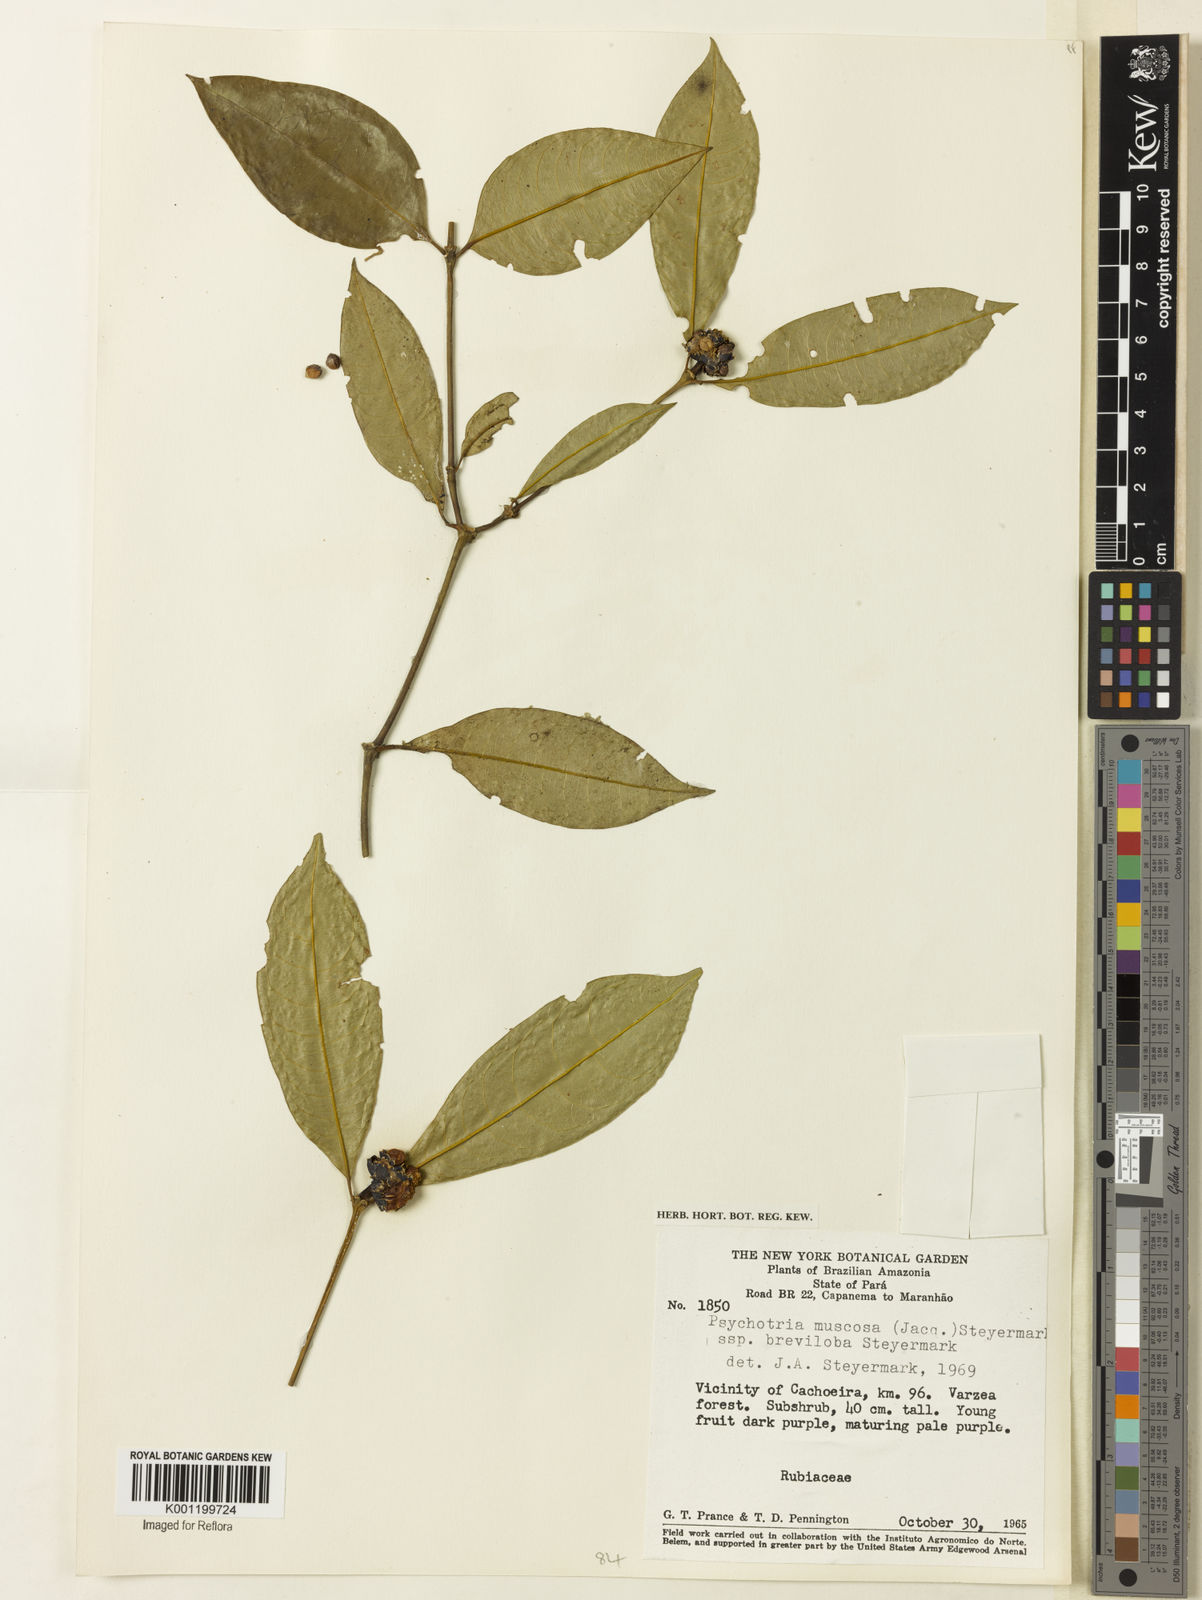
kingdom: Plantae
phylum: Tracheophyta
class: Magnoliopsida
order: Gentianales
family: Rubiaceae
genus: Palicourea
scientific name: Palicourea muscosa
